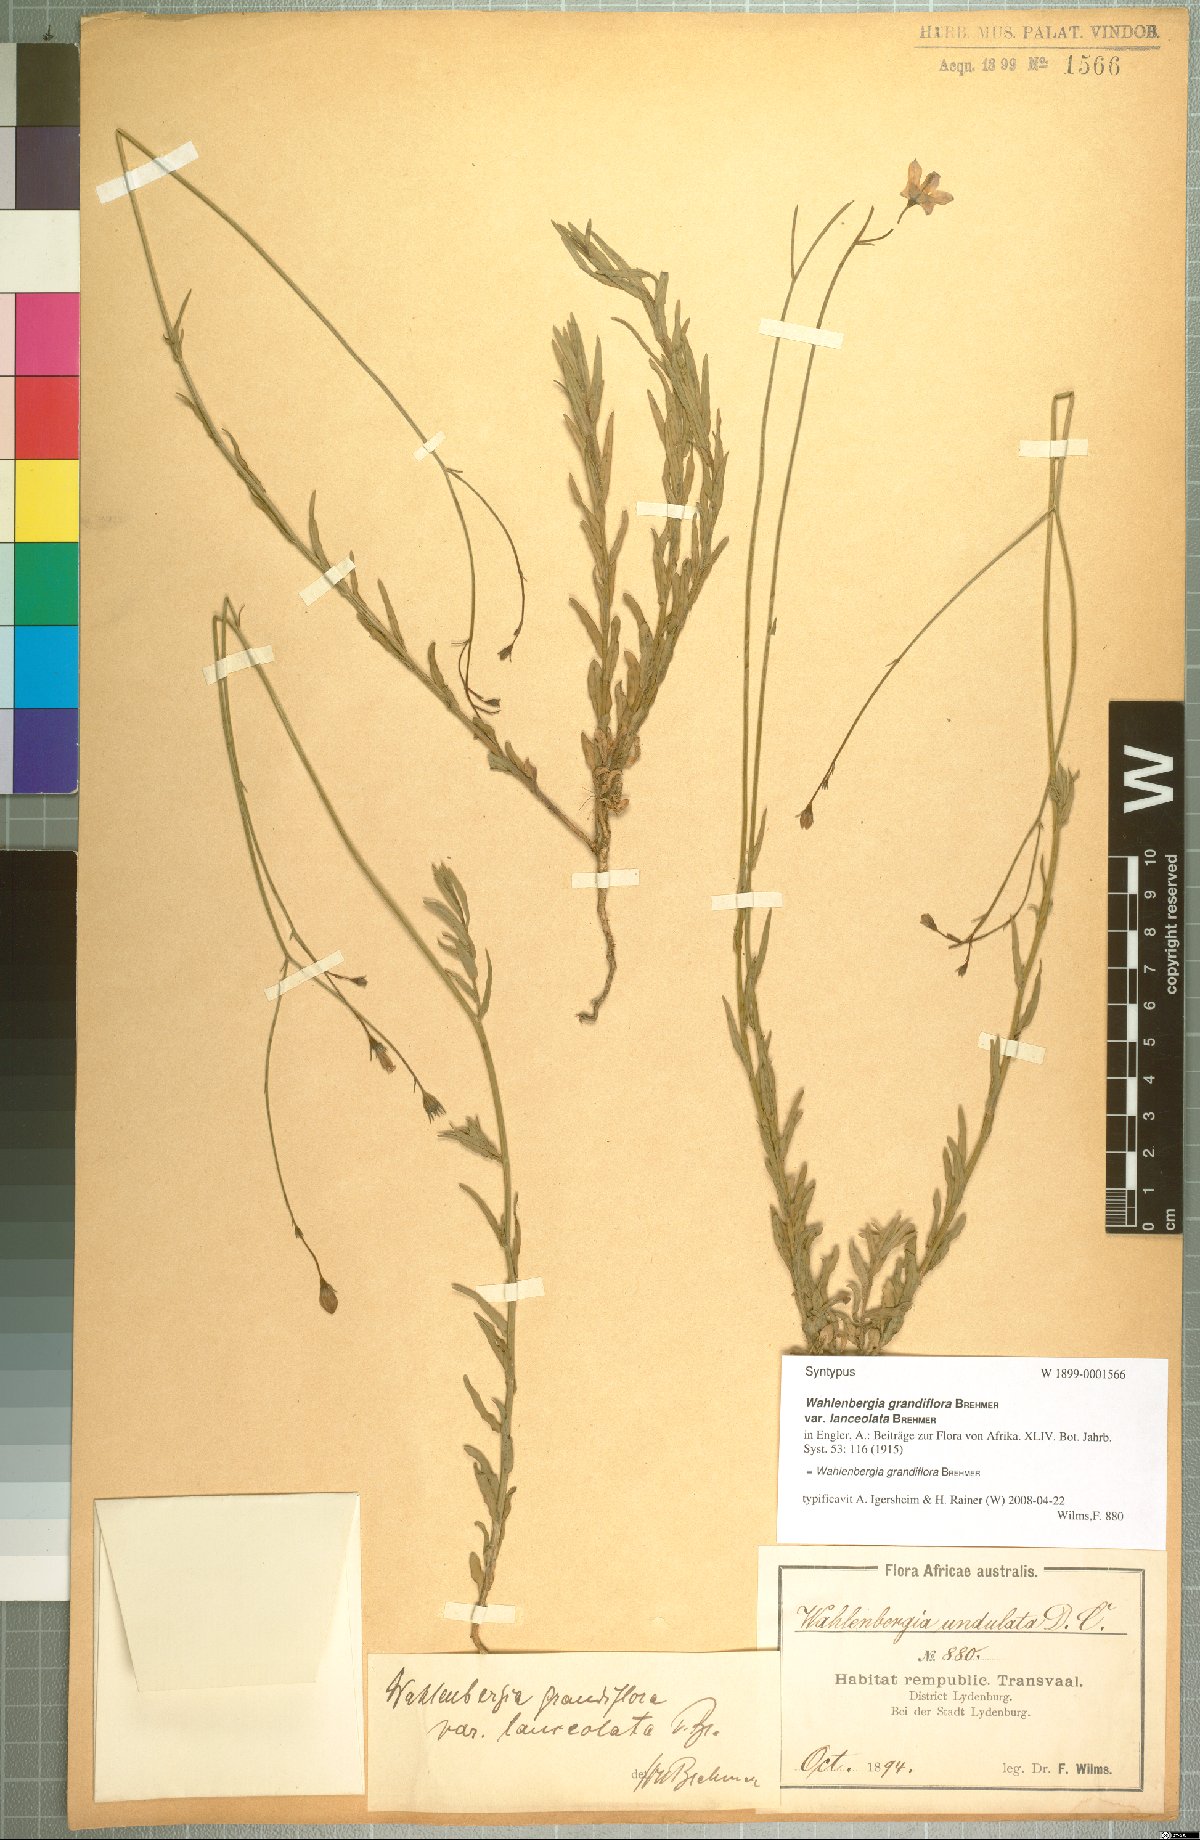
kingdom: Plantae
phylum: Tracheophyta
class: Magnoliopsida
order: Asterales
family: Campanulaceae
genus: Wahlenbergia
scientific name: Wahlenbergia grandiflora
